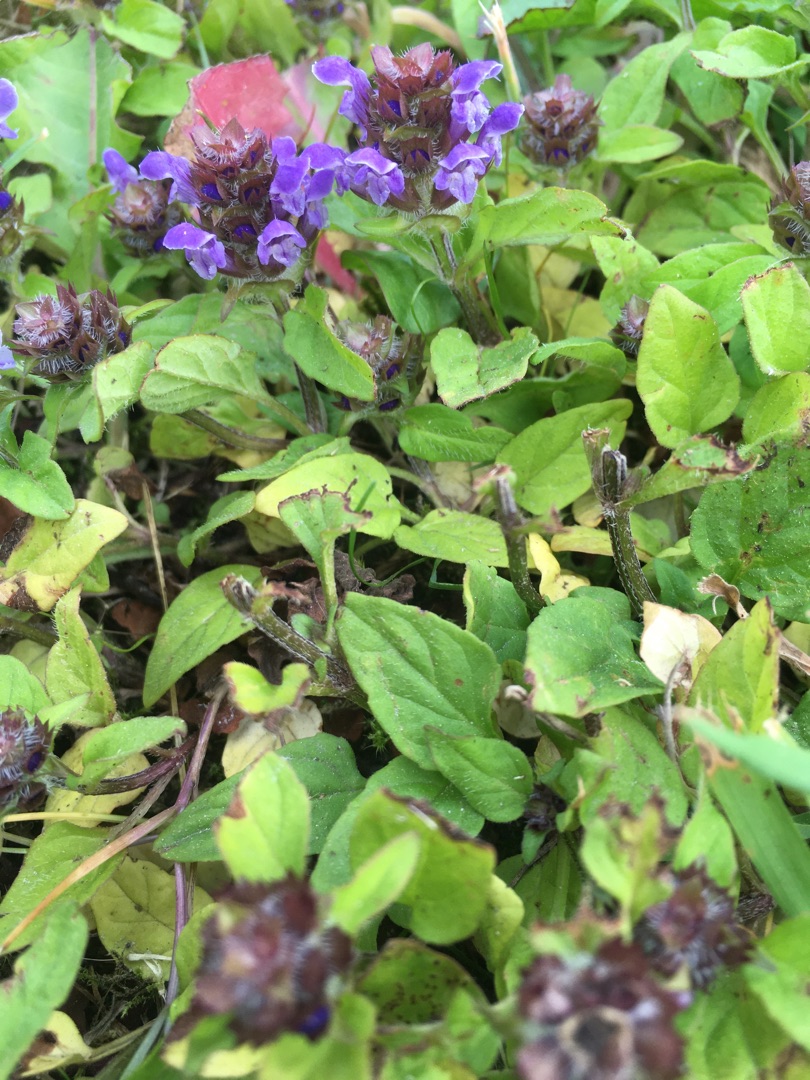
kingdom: Plantae
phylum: Tracheophyta
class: Magnoliopsida
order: Lamiales
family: Lamiaceae
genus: Prunella
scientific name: Prunella vulgaris
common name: Almindelig brunelle
